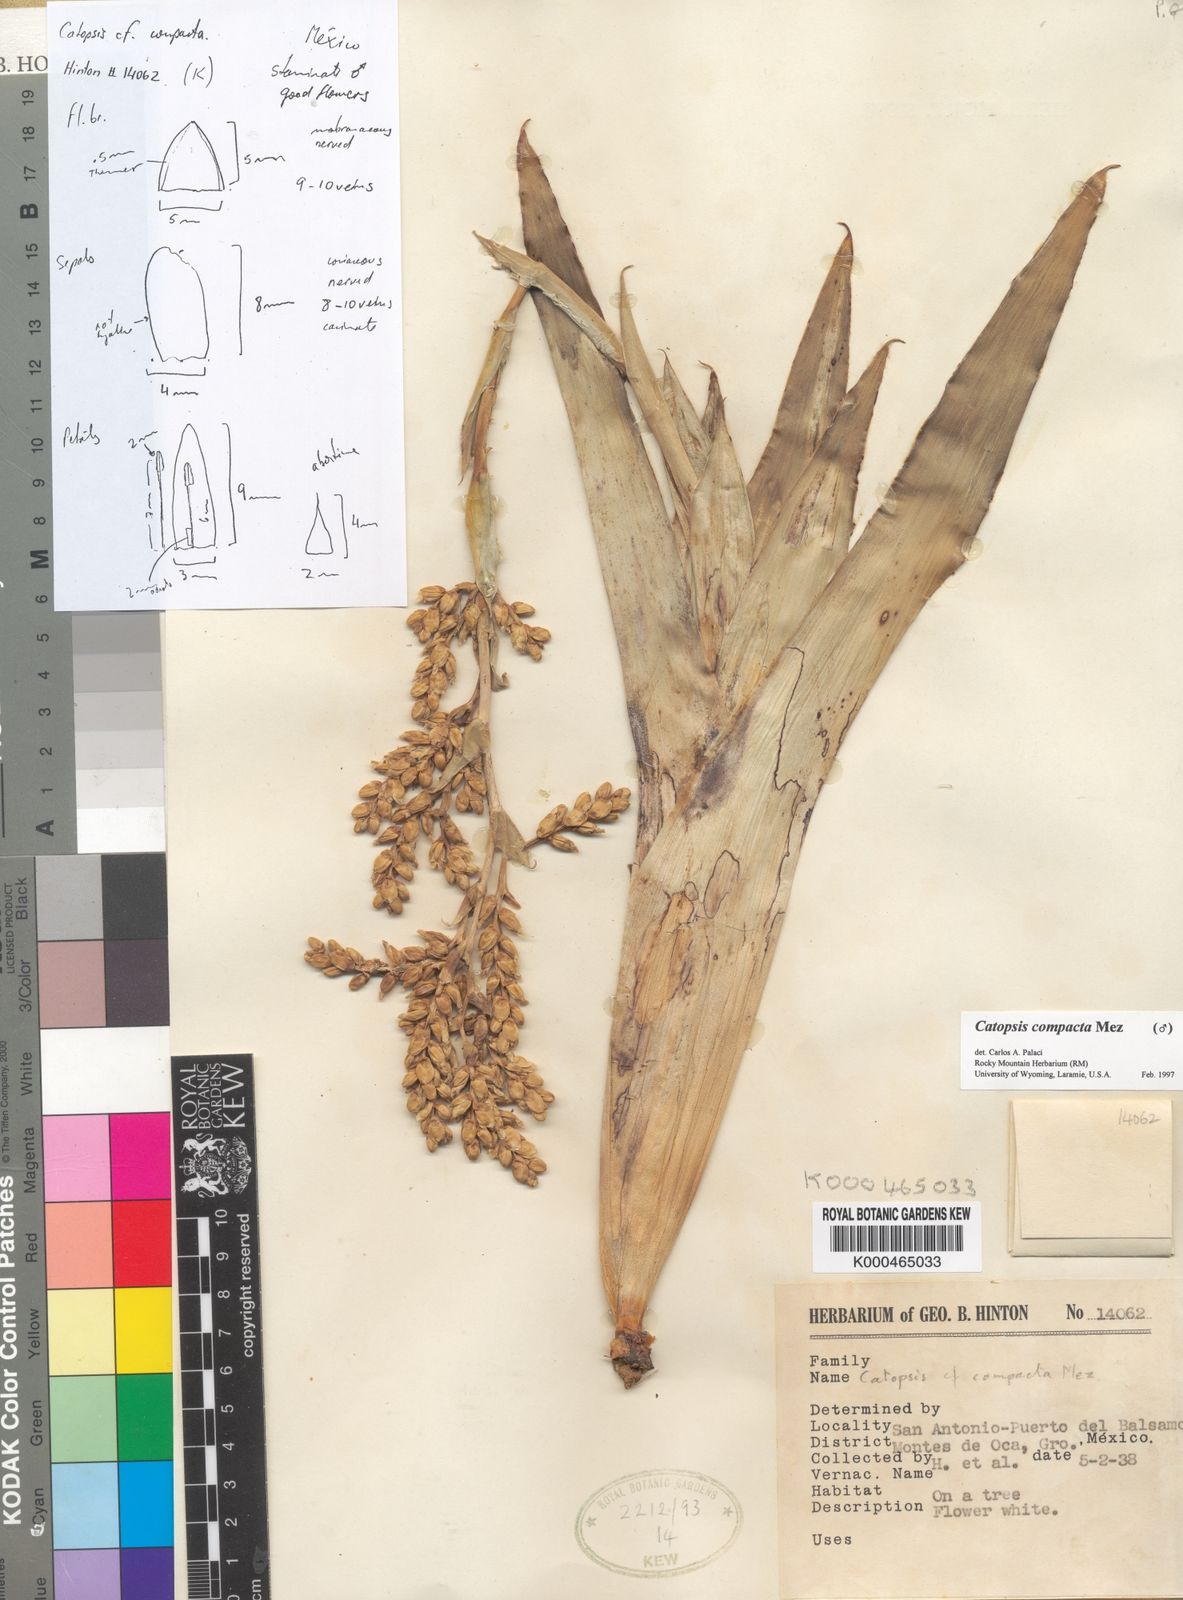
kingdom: Plantae
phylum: Tracheophyta
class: Liliopsida
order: Poales
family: Bromeliaceae
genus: Catopsis
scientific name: Catopsis compacta
